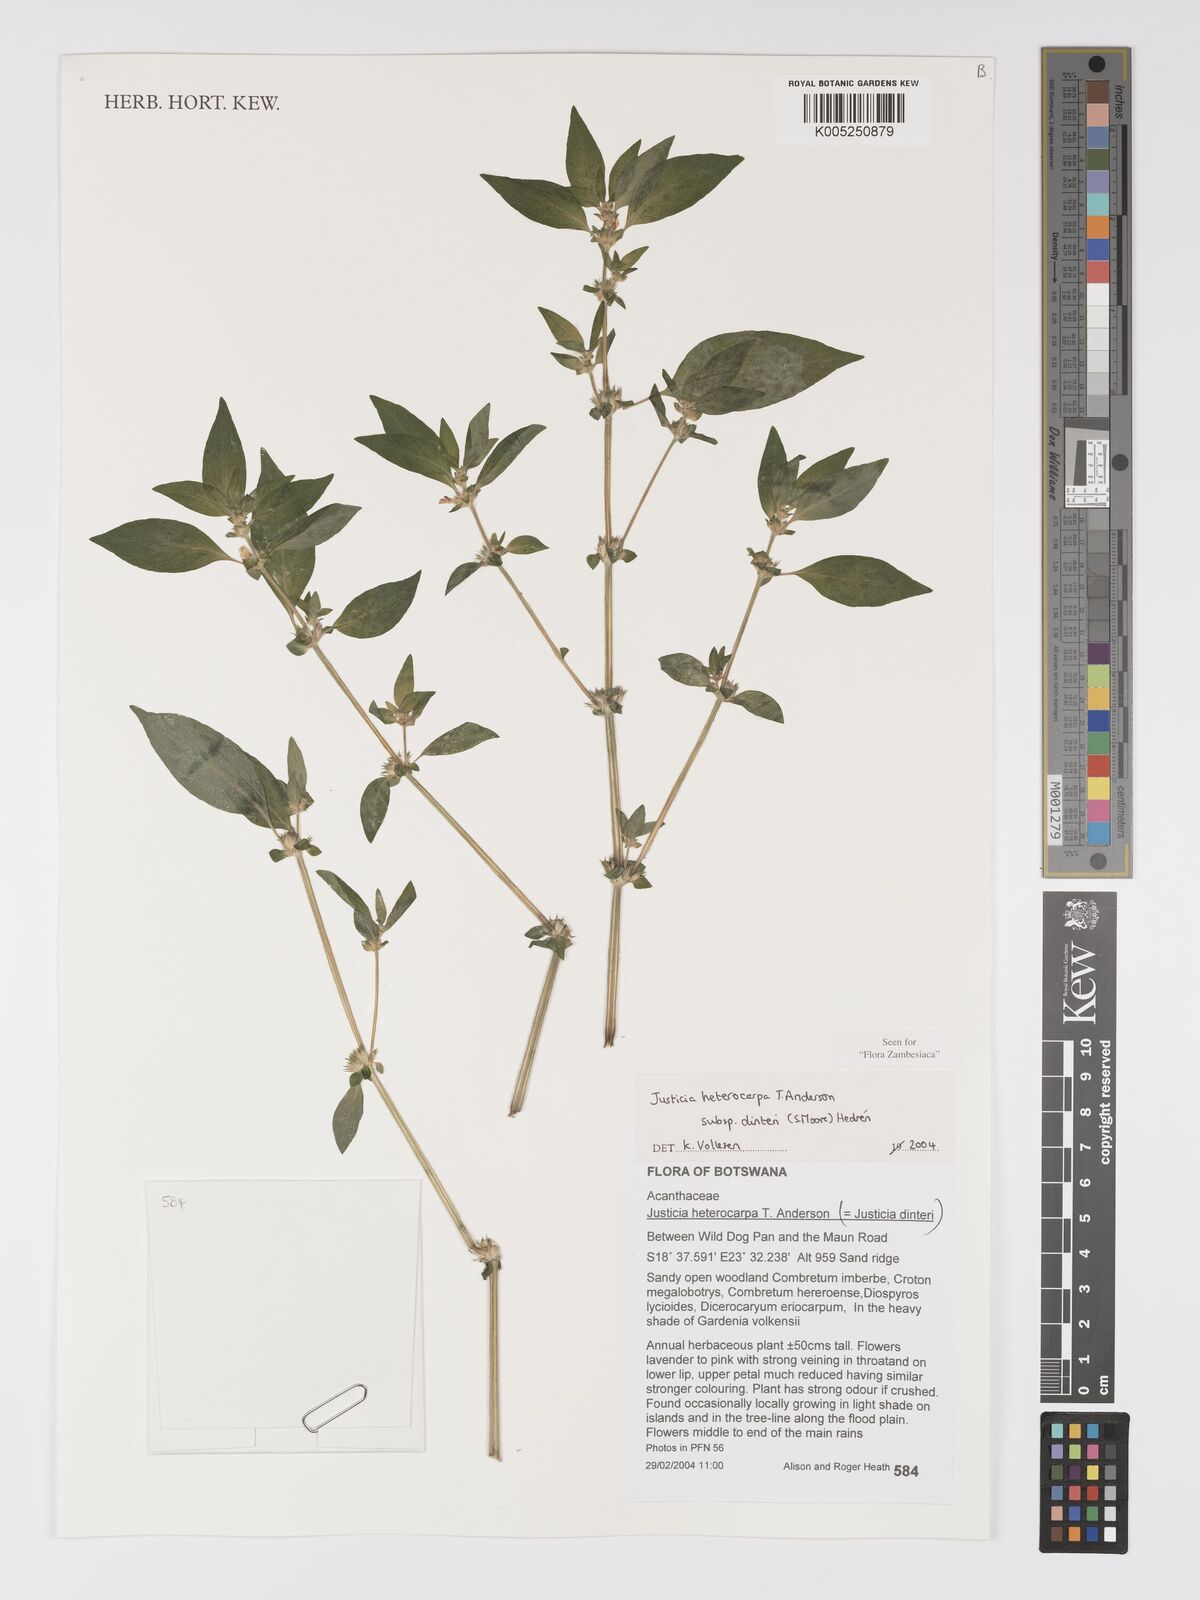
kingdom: Plantae
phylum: Tracheophyta
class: Magnoliopsida
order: Lamiales
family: Acanthaceae
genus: Justicia
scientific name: Justicia heterocarpa
